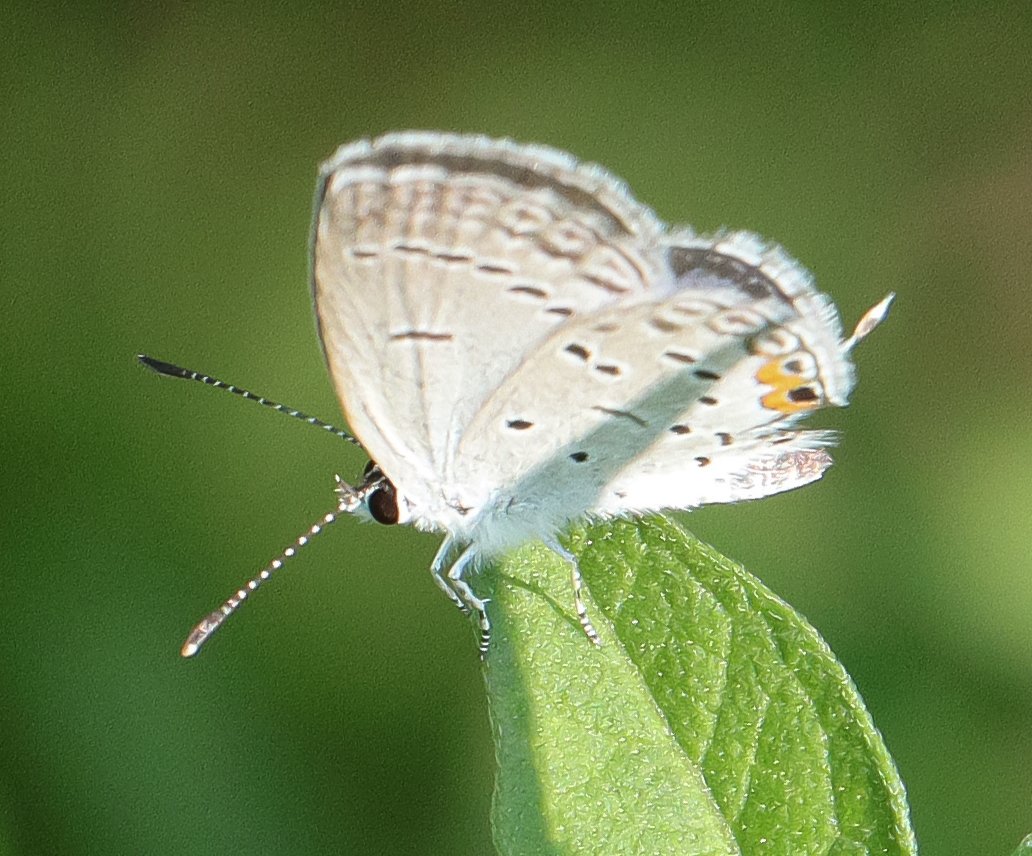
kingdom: Animalia
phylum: Arthropoda
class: Insecta
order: Lepidoptera
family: Lycaenidae
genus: Elkalyce
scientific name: Elkalyce comyntas
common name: Eastern Tailed-Blue
